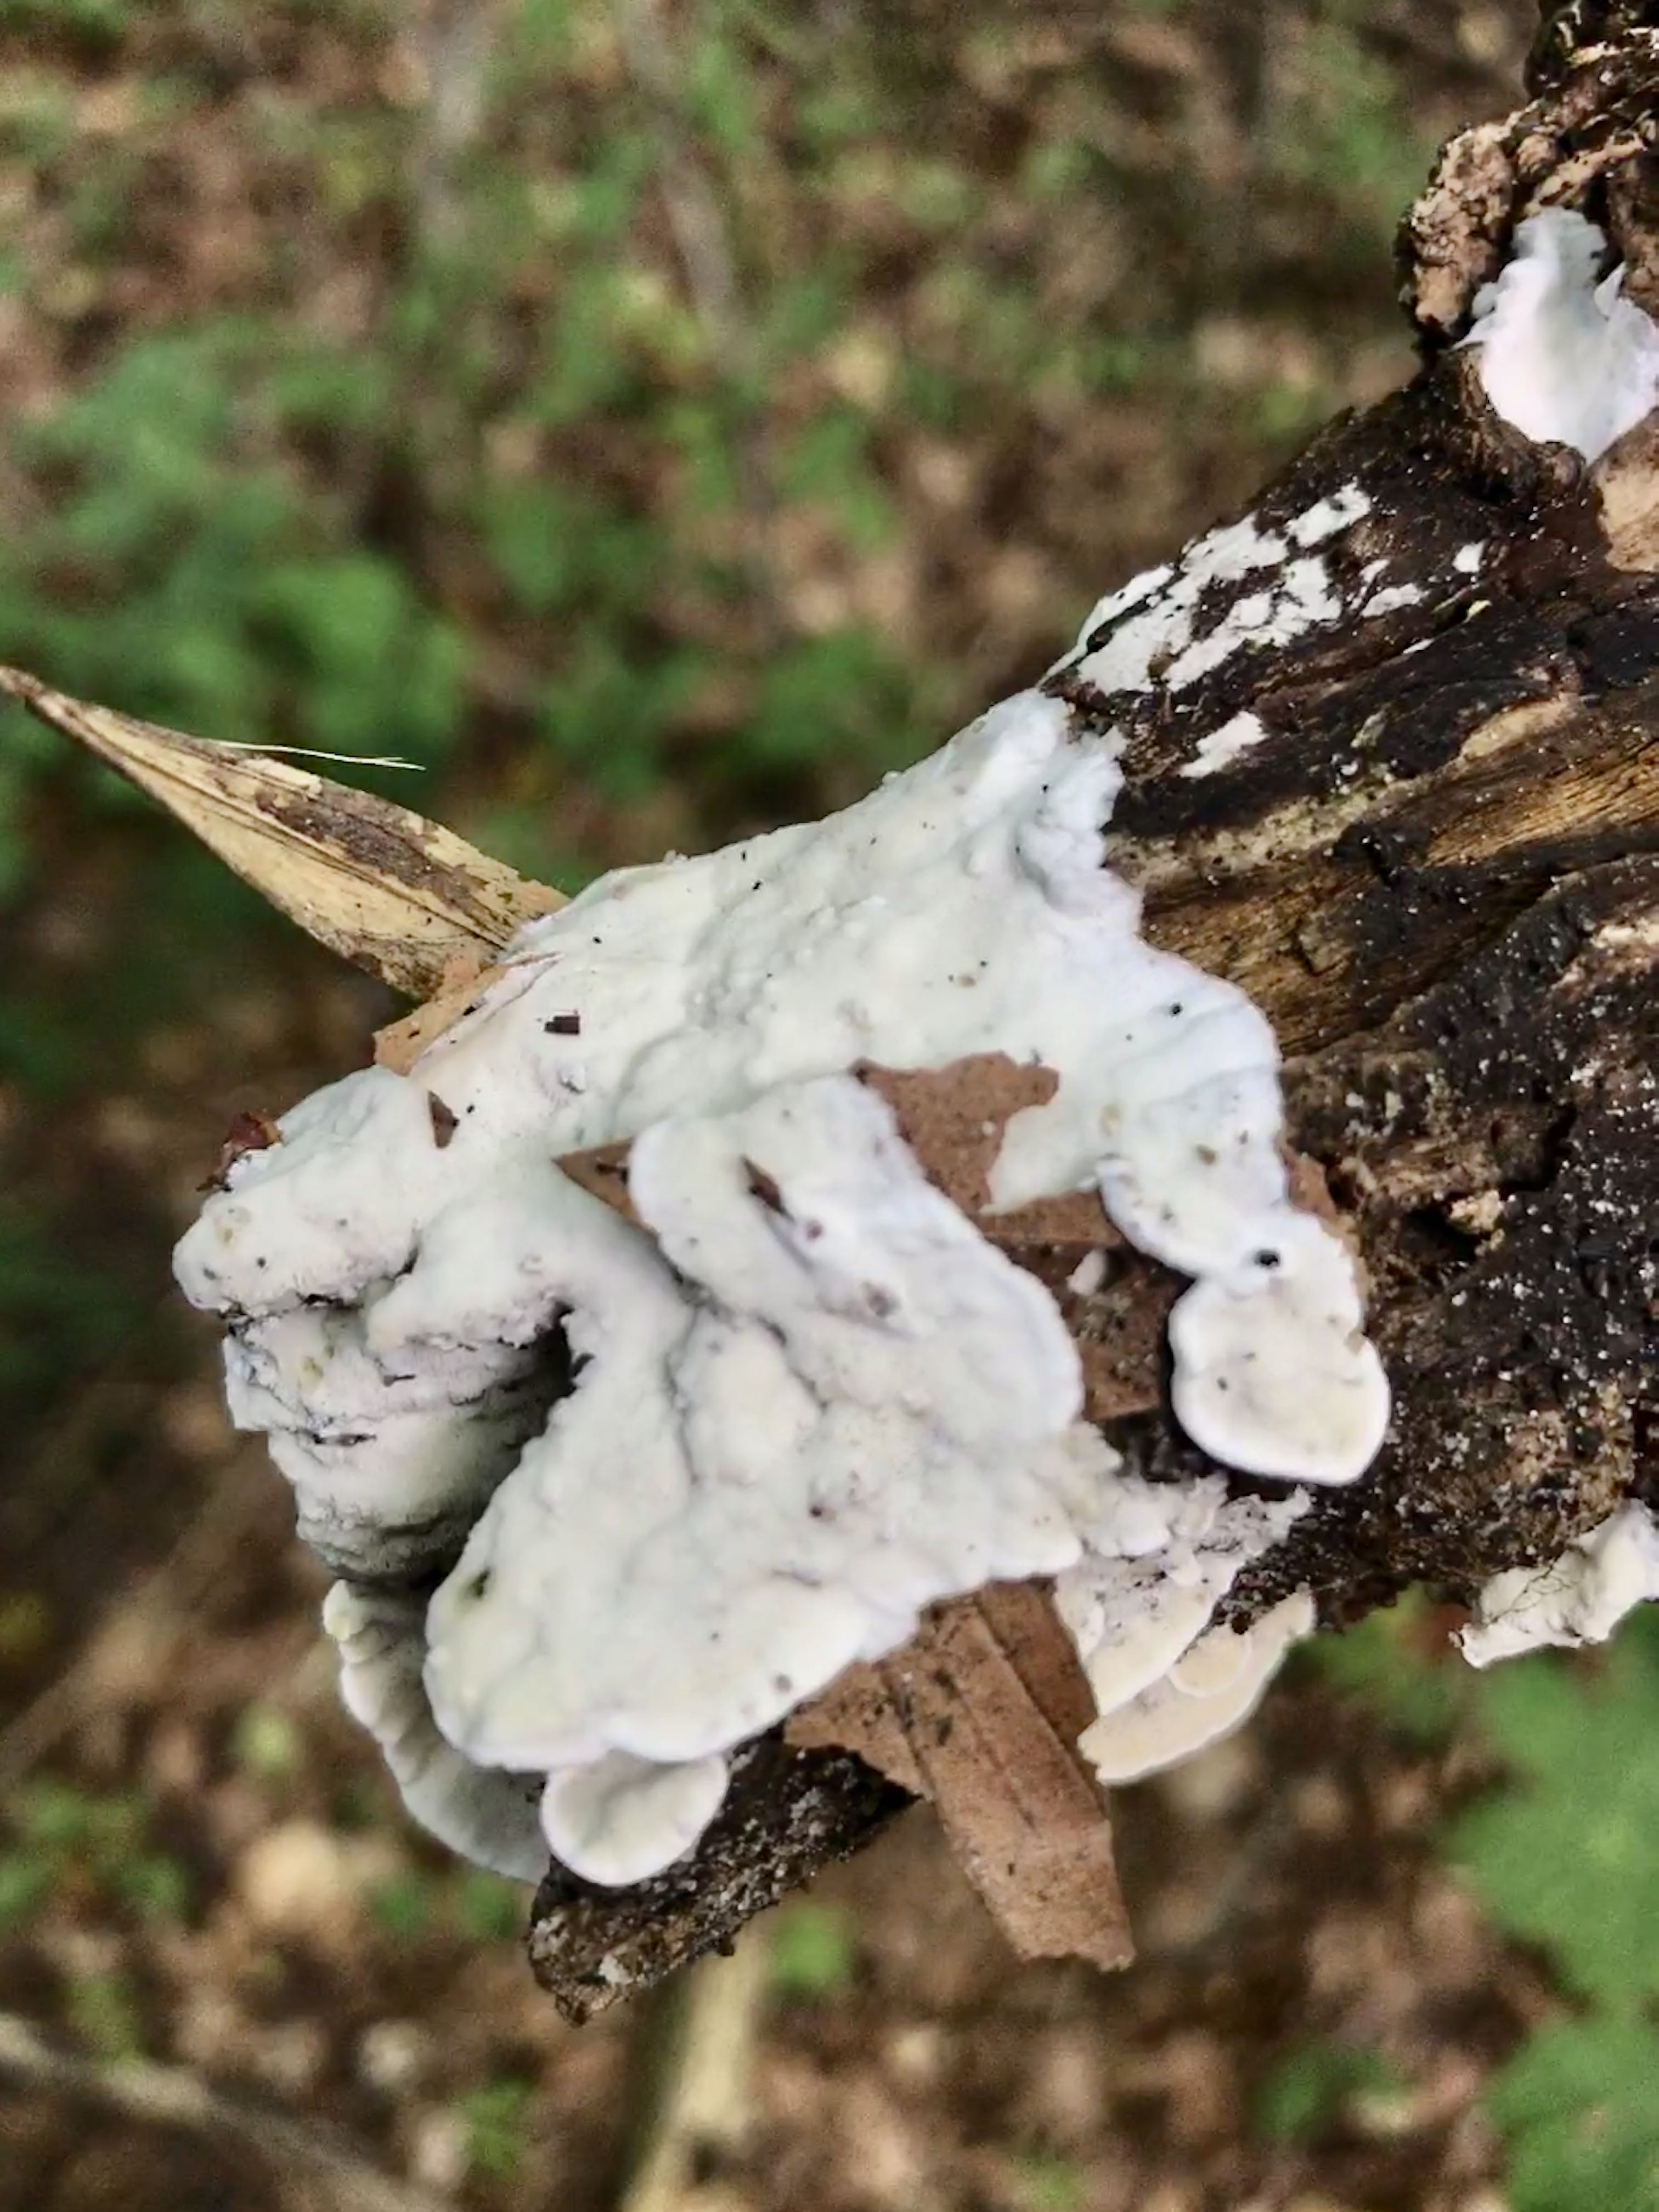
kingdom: Fungi
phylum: Basidiomycota
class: Agaricomycetes
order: Polyporales
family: Incrustoporiaceae
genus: Skeletocutis
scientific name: Skeletocutis nemoralis
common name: stor krystalporesvamp
